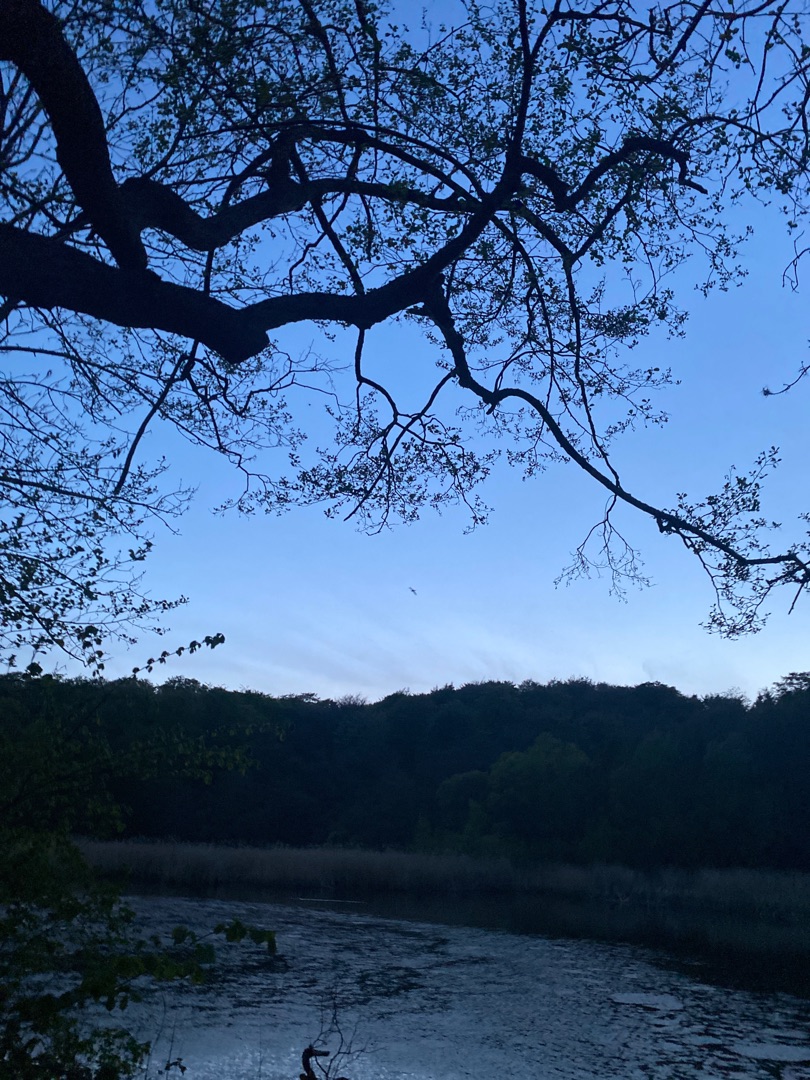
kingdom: Animalia
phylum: Chordata
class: Mammalia
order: Chiroptera
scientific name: Chiroptera
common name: Flagermus
